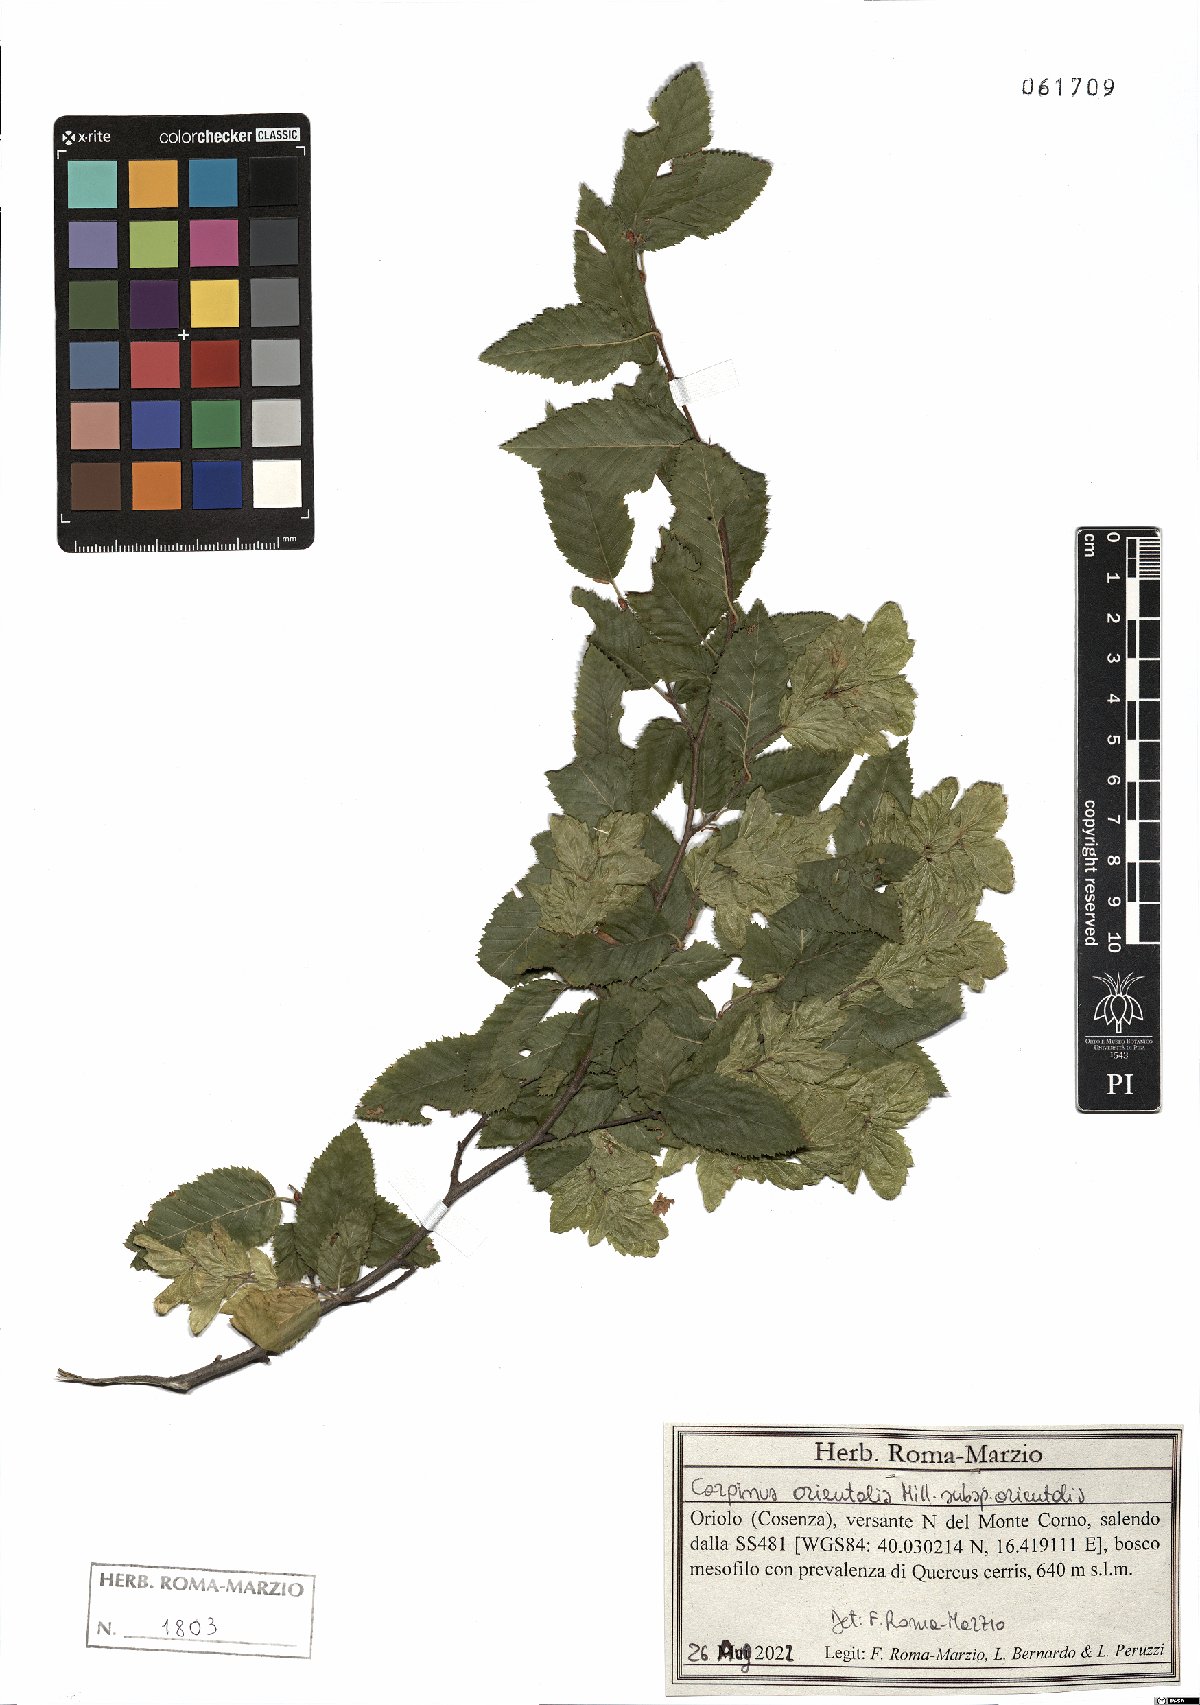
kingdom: Plantae
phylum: Tracheophyta
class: Magnoliopsida
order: Fagales
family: Betulaceae
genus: Carpinus
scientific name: Carpinus orientalis
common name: Eastern hornbeam
